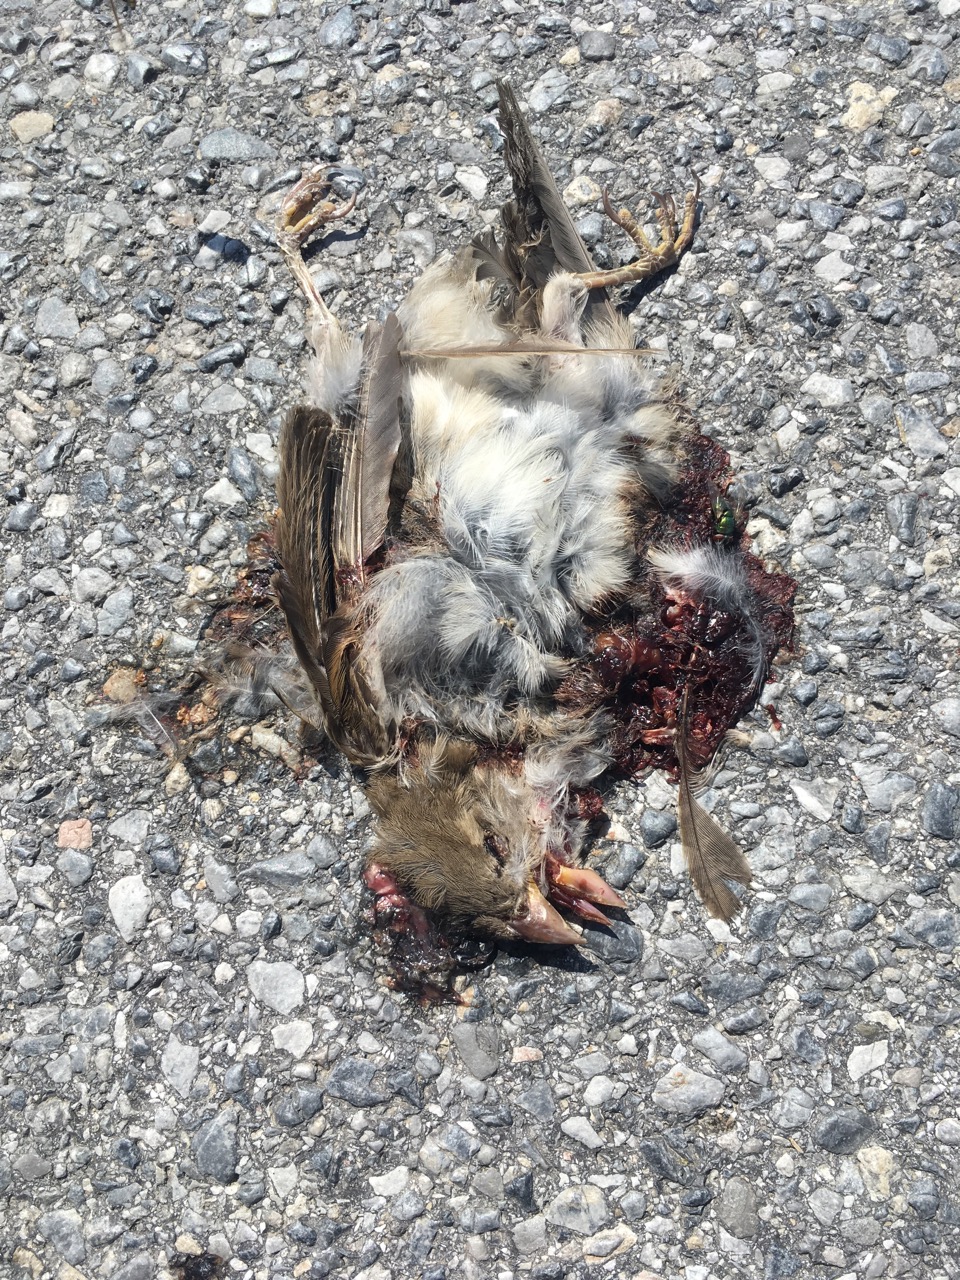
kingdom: Animalia
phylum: Chordata
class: Aves
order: Passeriformes
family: Passeridae
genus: Passer
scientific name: Passer domesticus
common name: House sparrow
